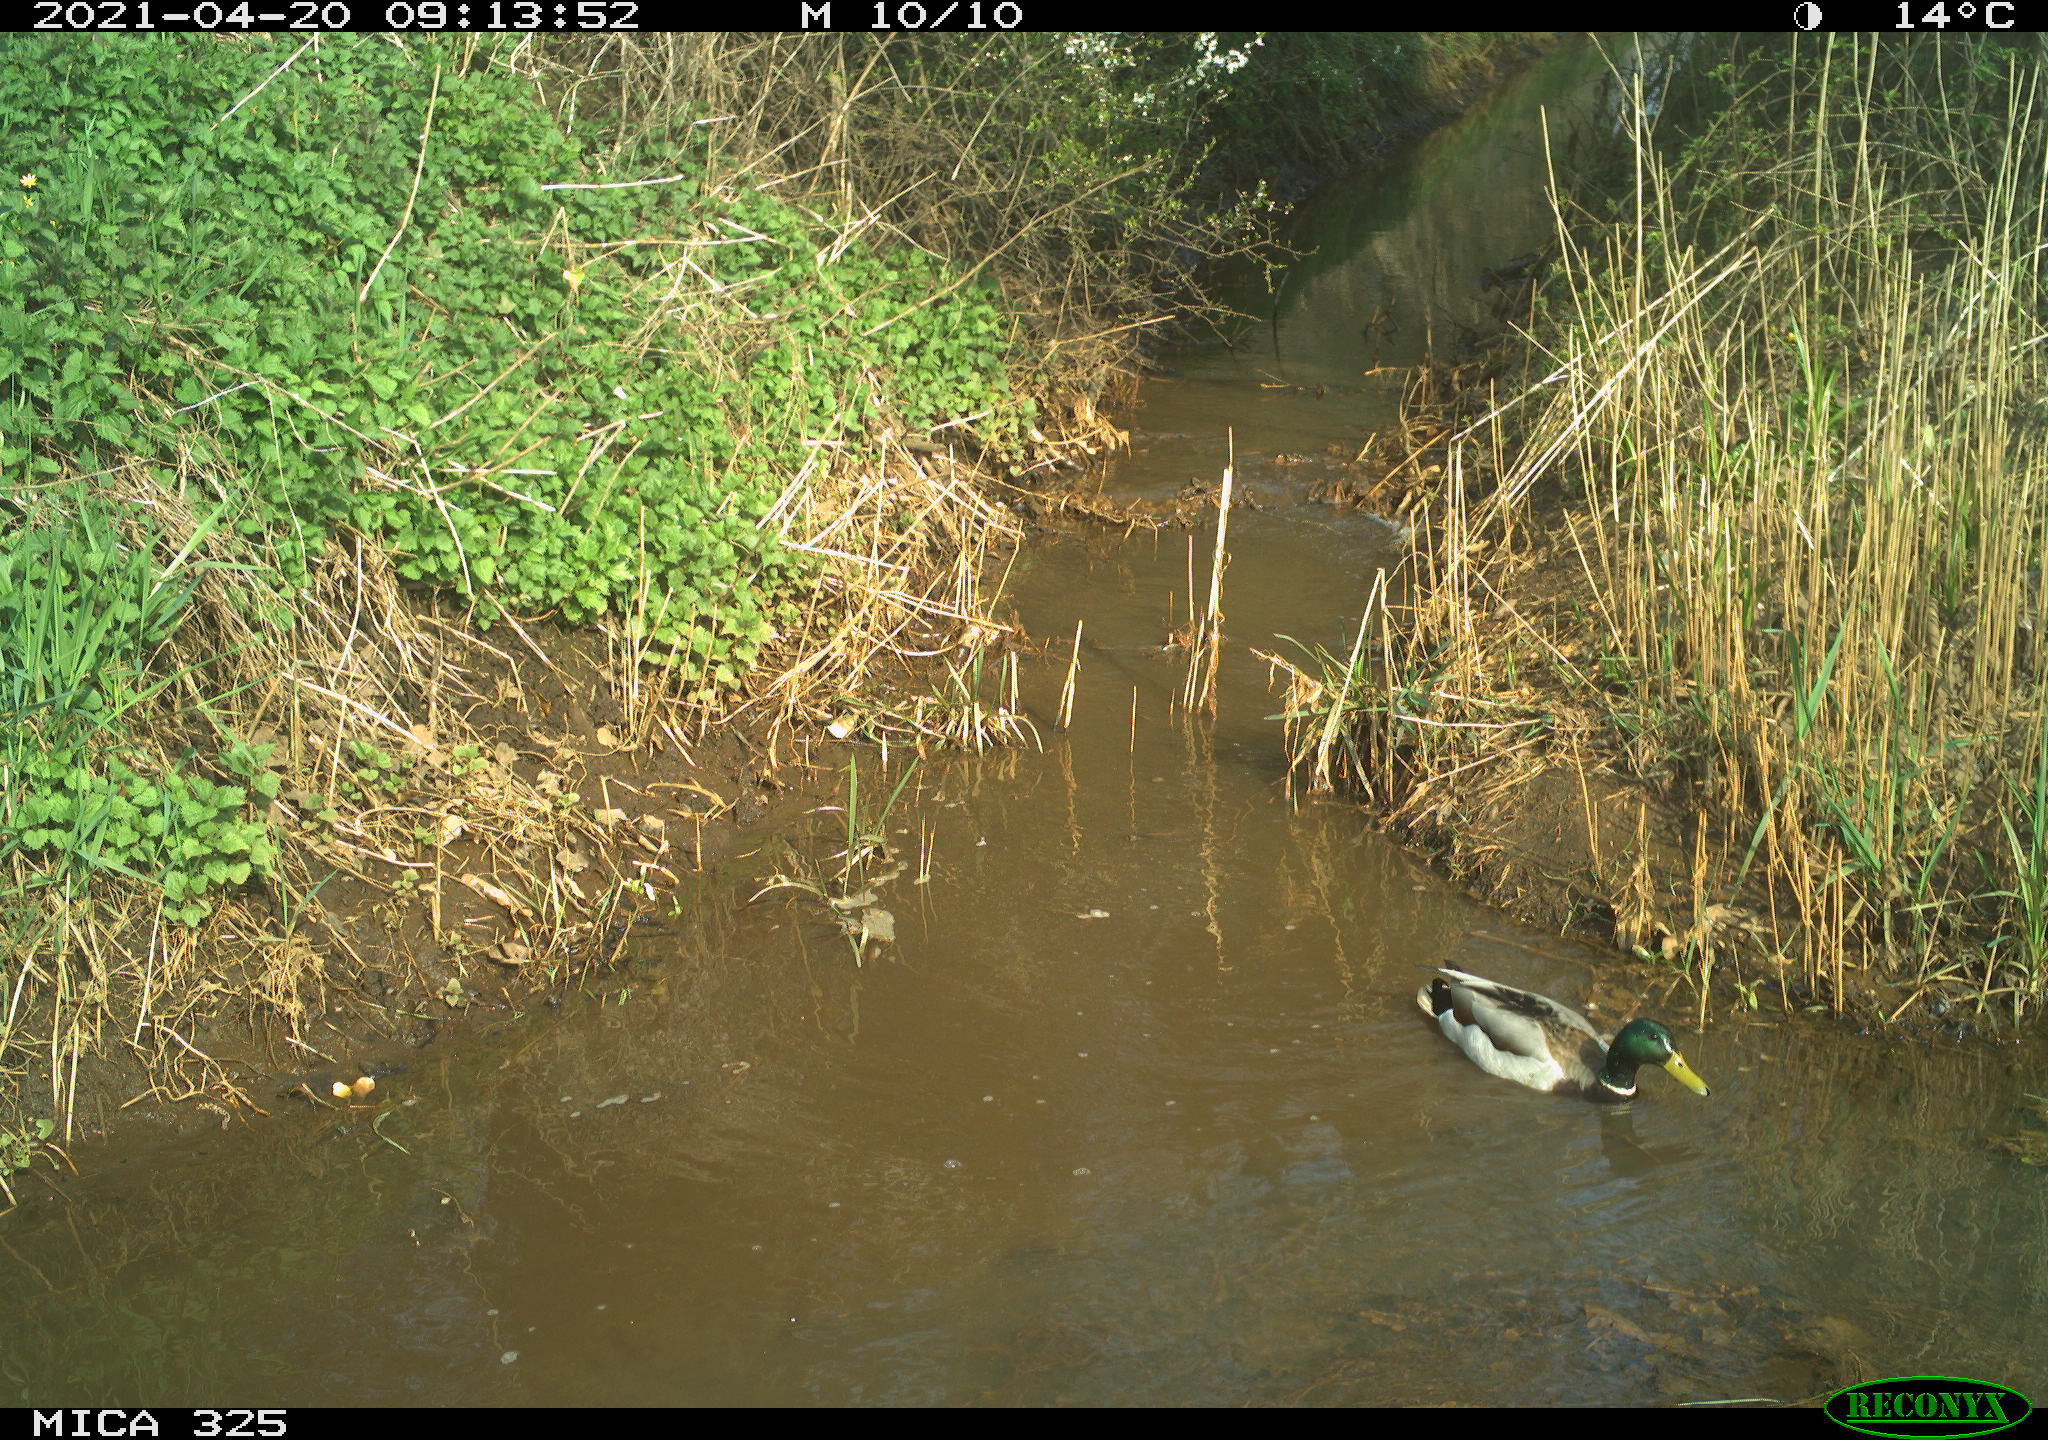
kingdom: Animalia
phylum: Chordata
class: Aves
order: Anseriformes
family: Anatidae
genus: Anas
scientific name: Anas platyrhynchos
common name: Mallard
